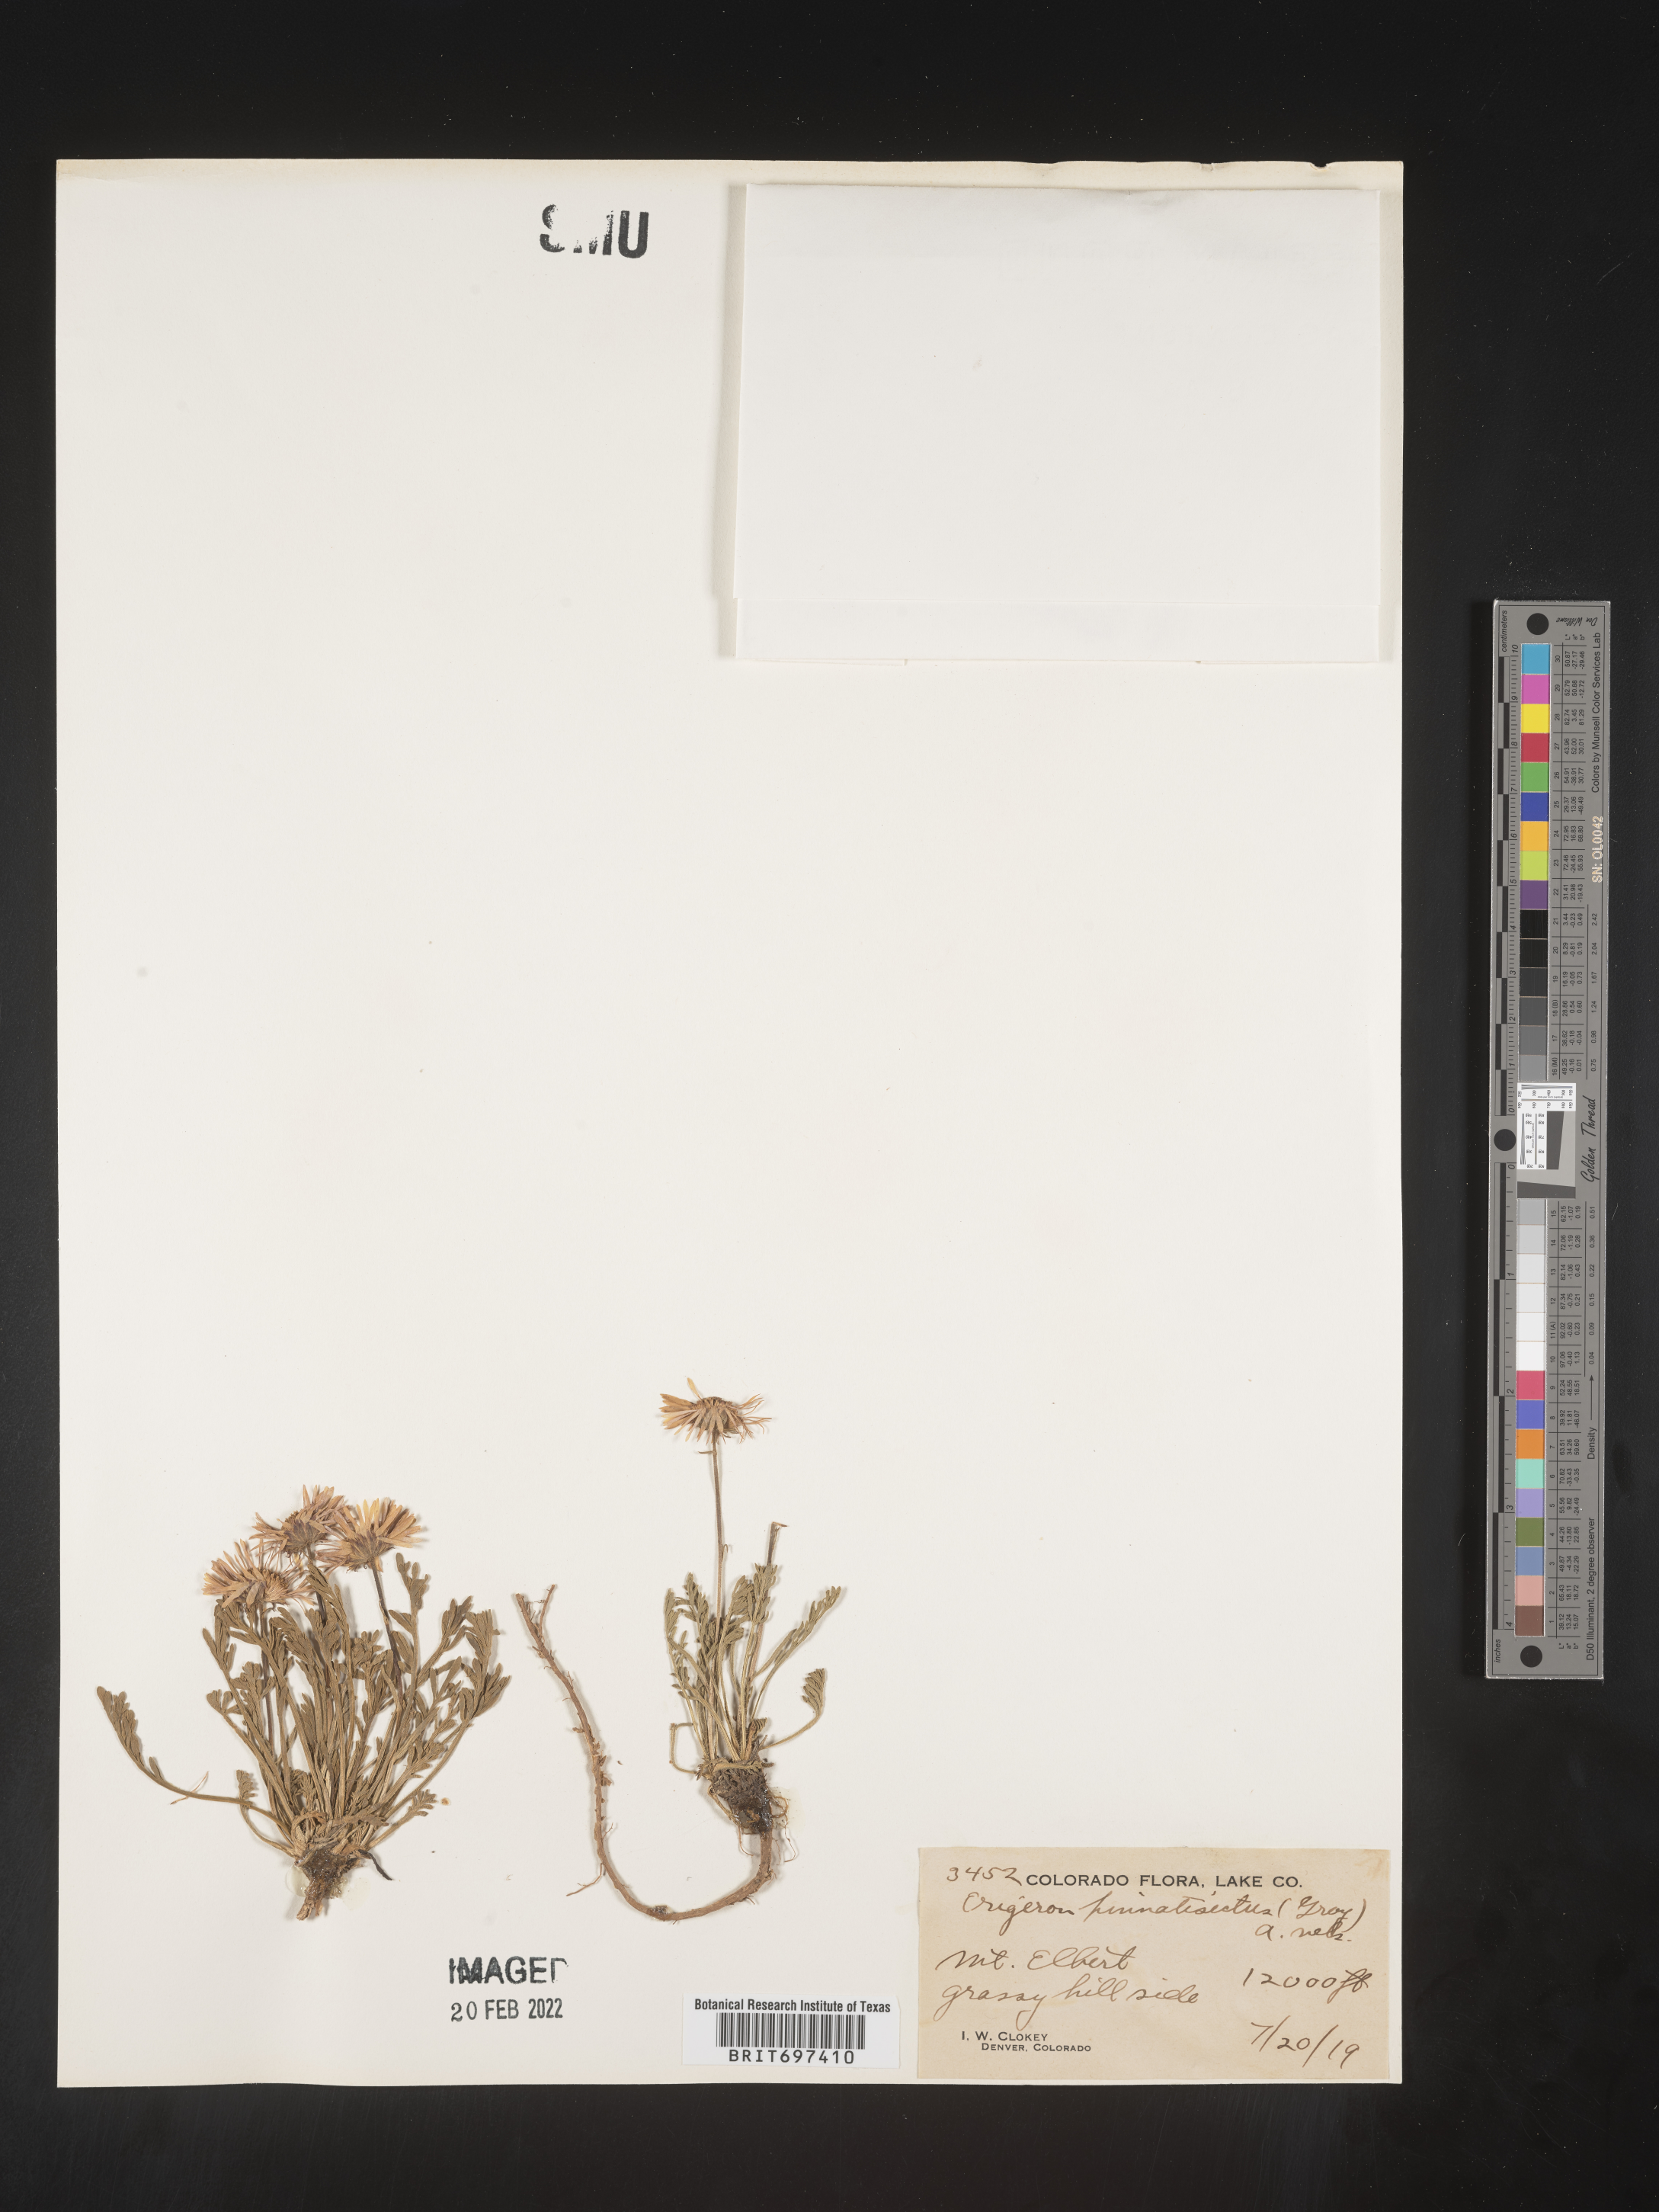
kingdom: Plantae
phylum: Tracheophyta
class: Magnoliopsida
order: Asterales
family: Asteraceae
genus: Erigeron
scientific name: Erigeron pinnatisectus
